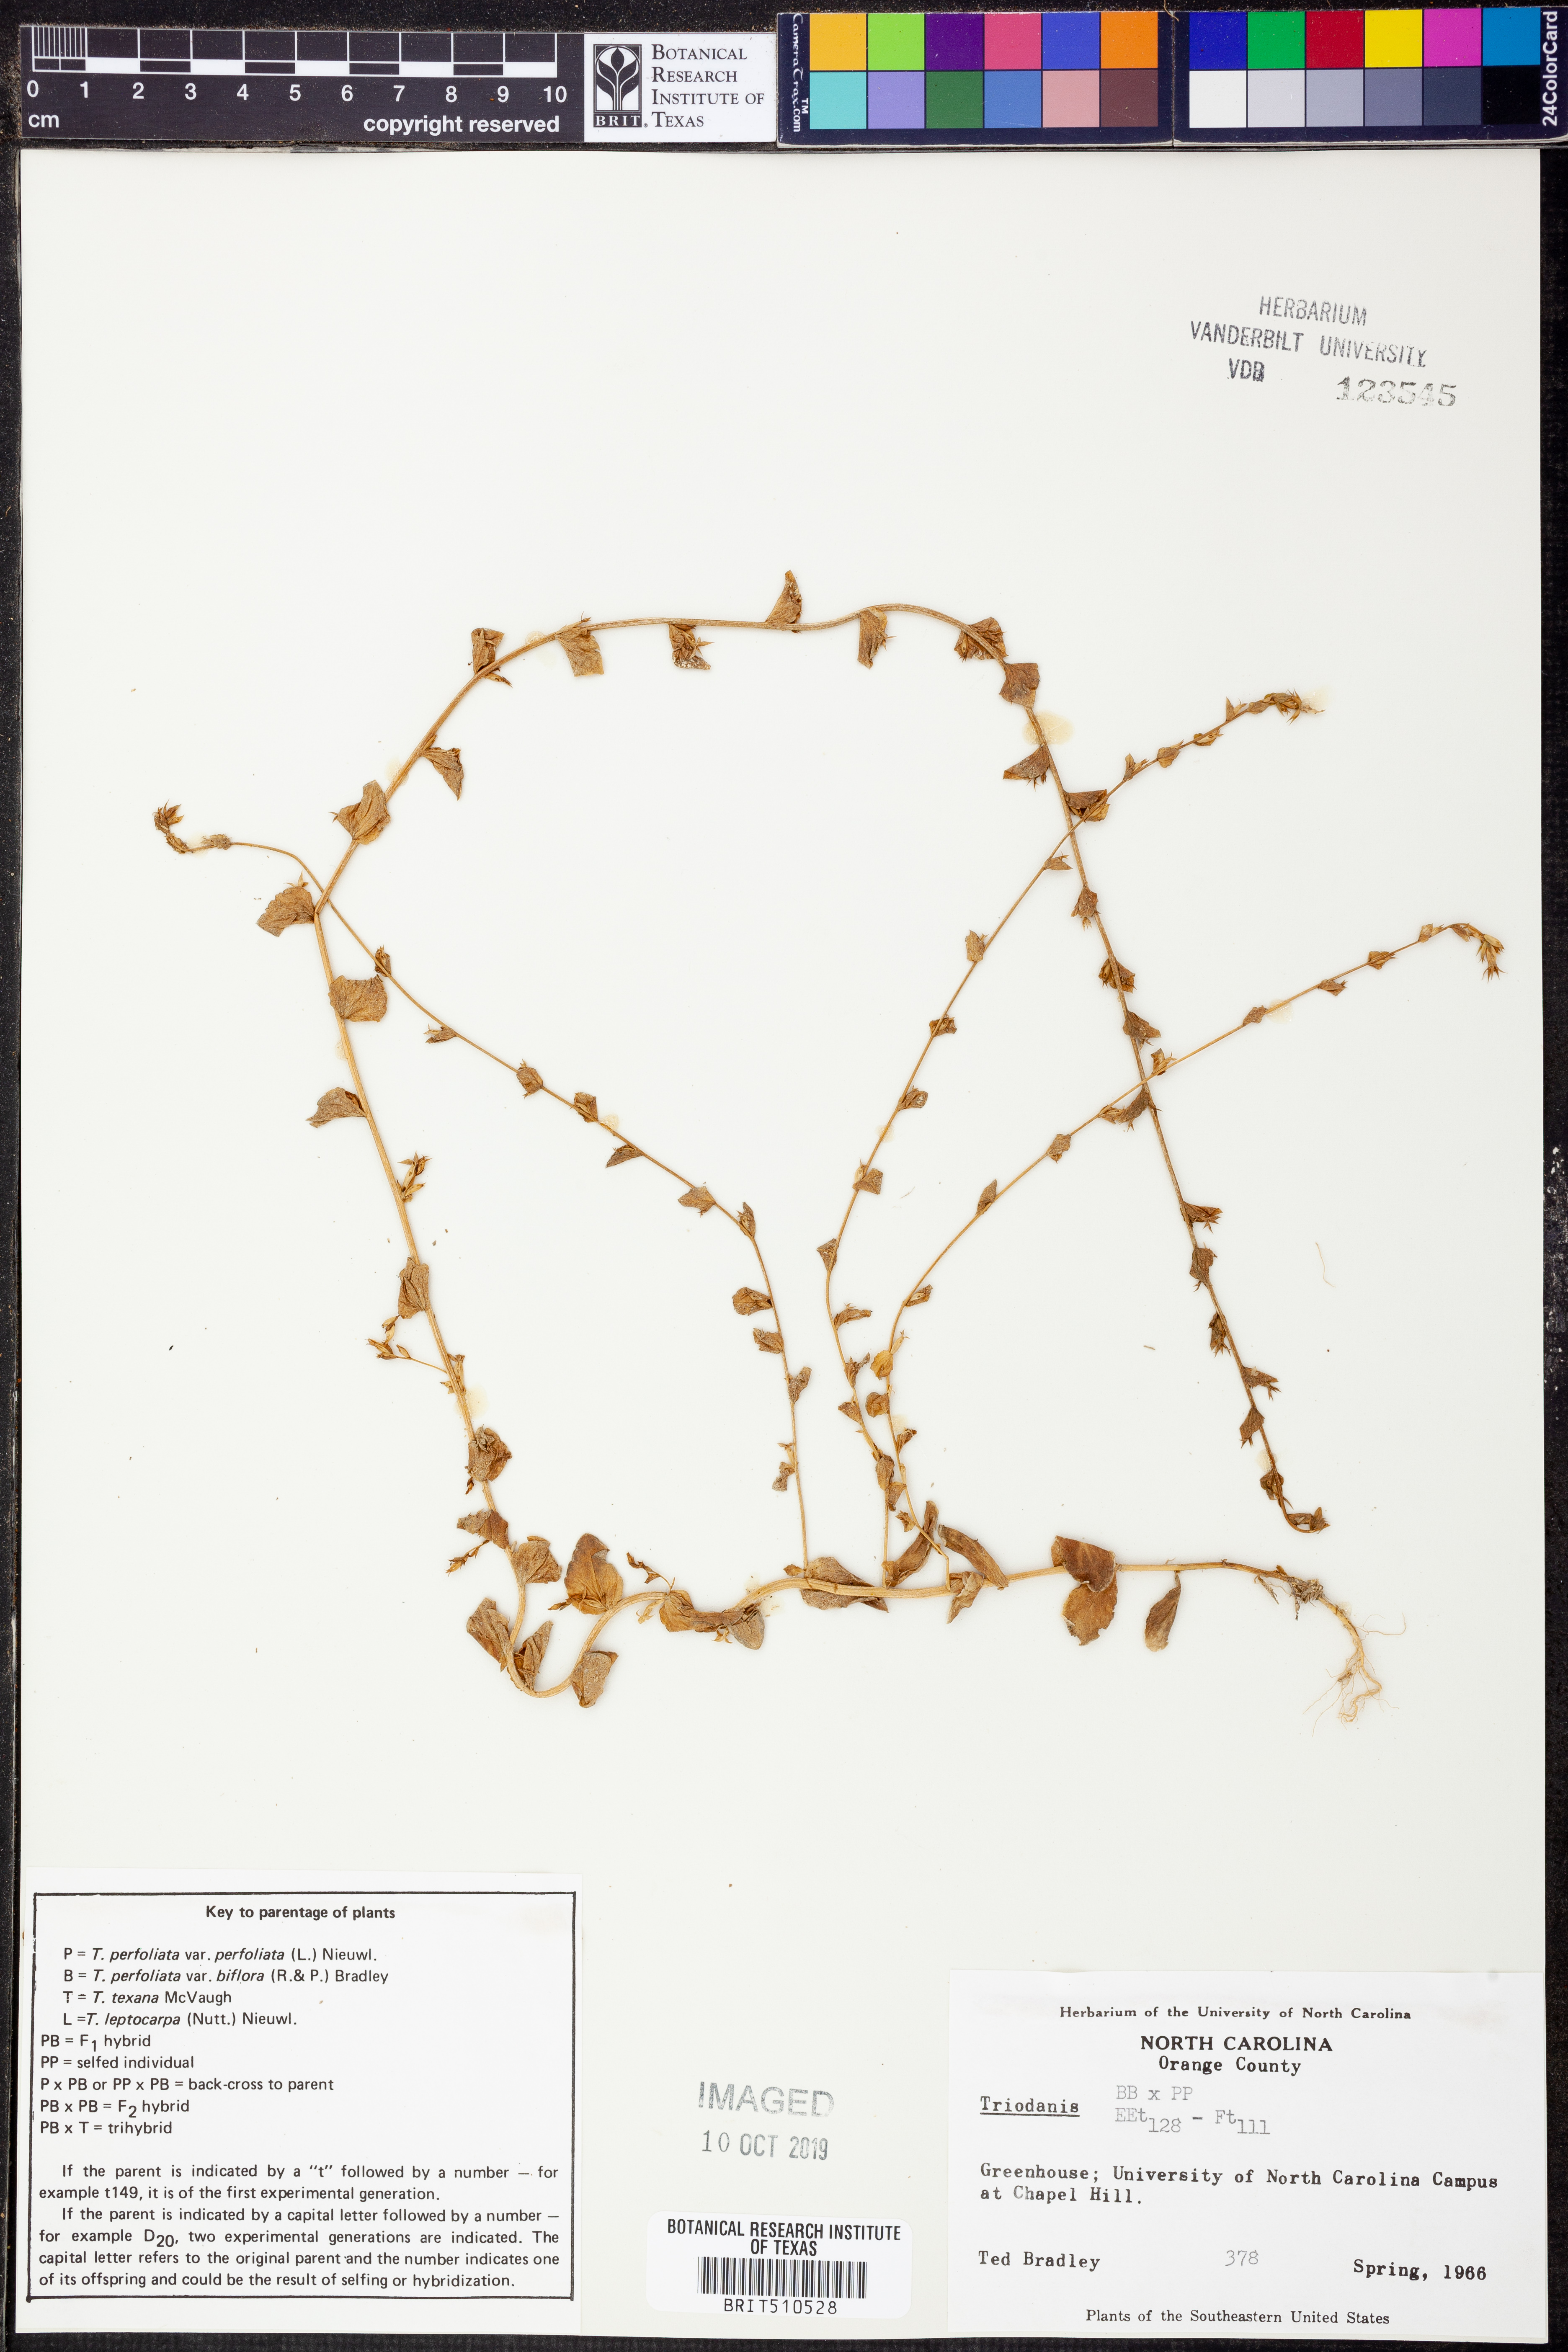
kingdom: Plantae
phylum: Tracheophyta
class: Magnoliopsida
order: Asterales
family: Campanulaceae
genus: Triodanis
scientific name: Triodanis
